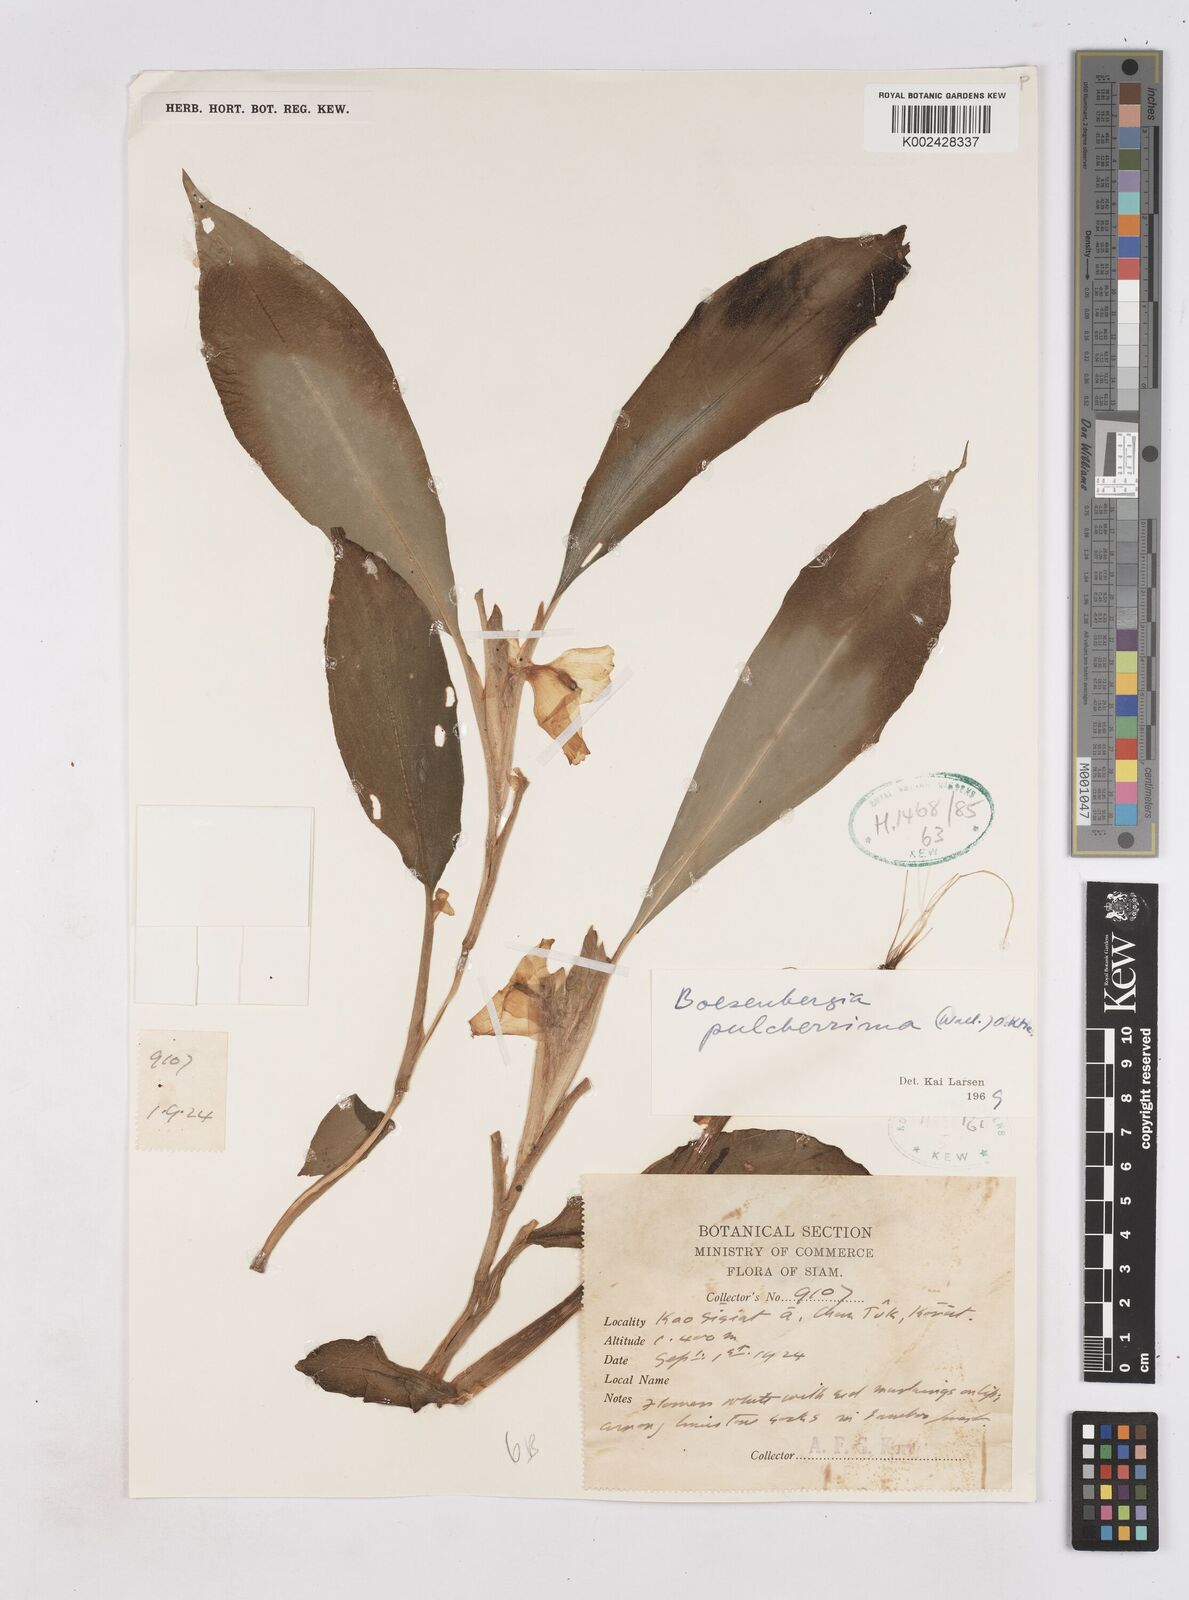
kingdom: Plantae
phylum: Tracheophyta
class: Liliopsida
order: Zingiberales
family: Zingiberaceae
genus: Boesenbergia
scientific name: Boesenbergia pulcherrima
